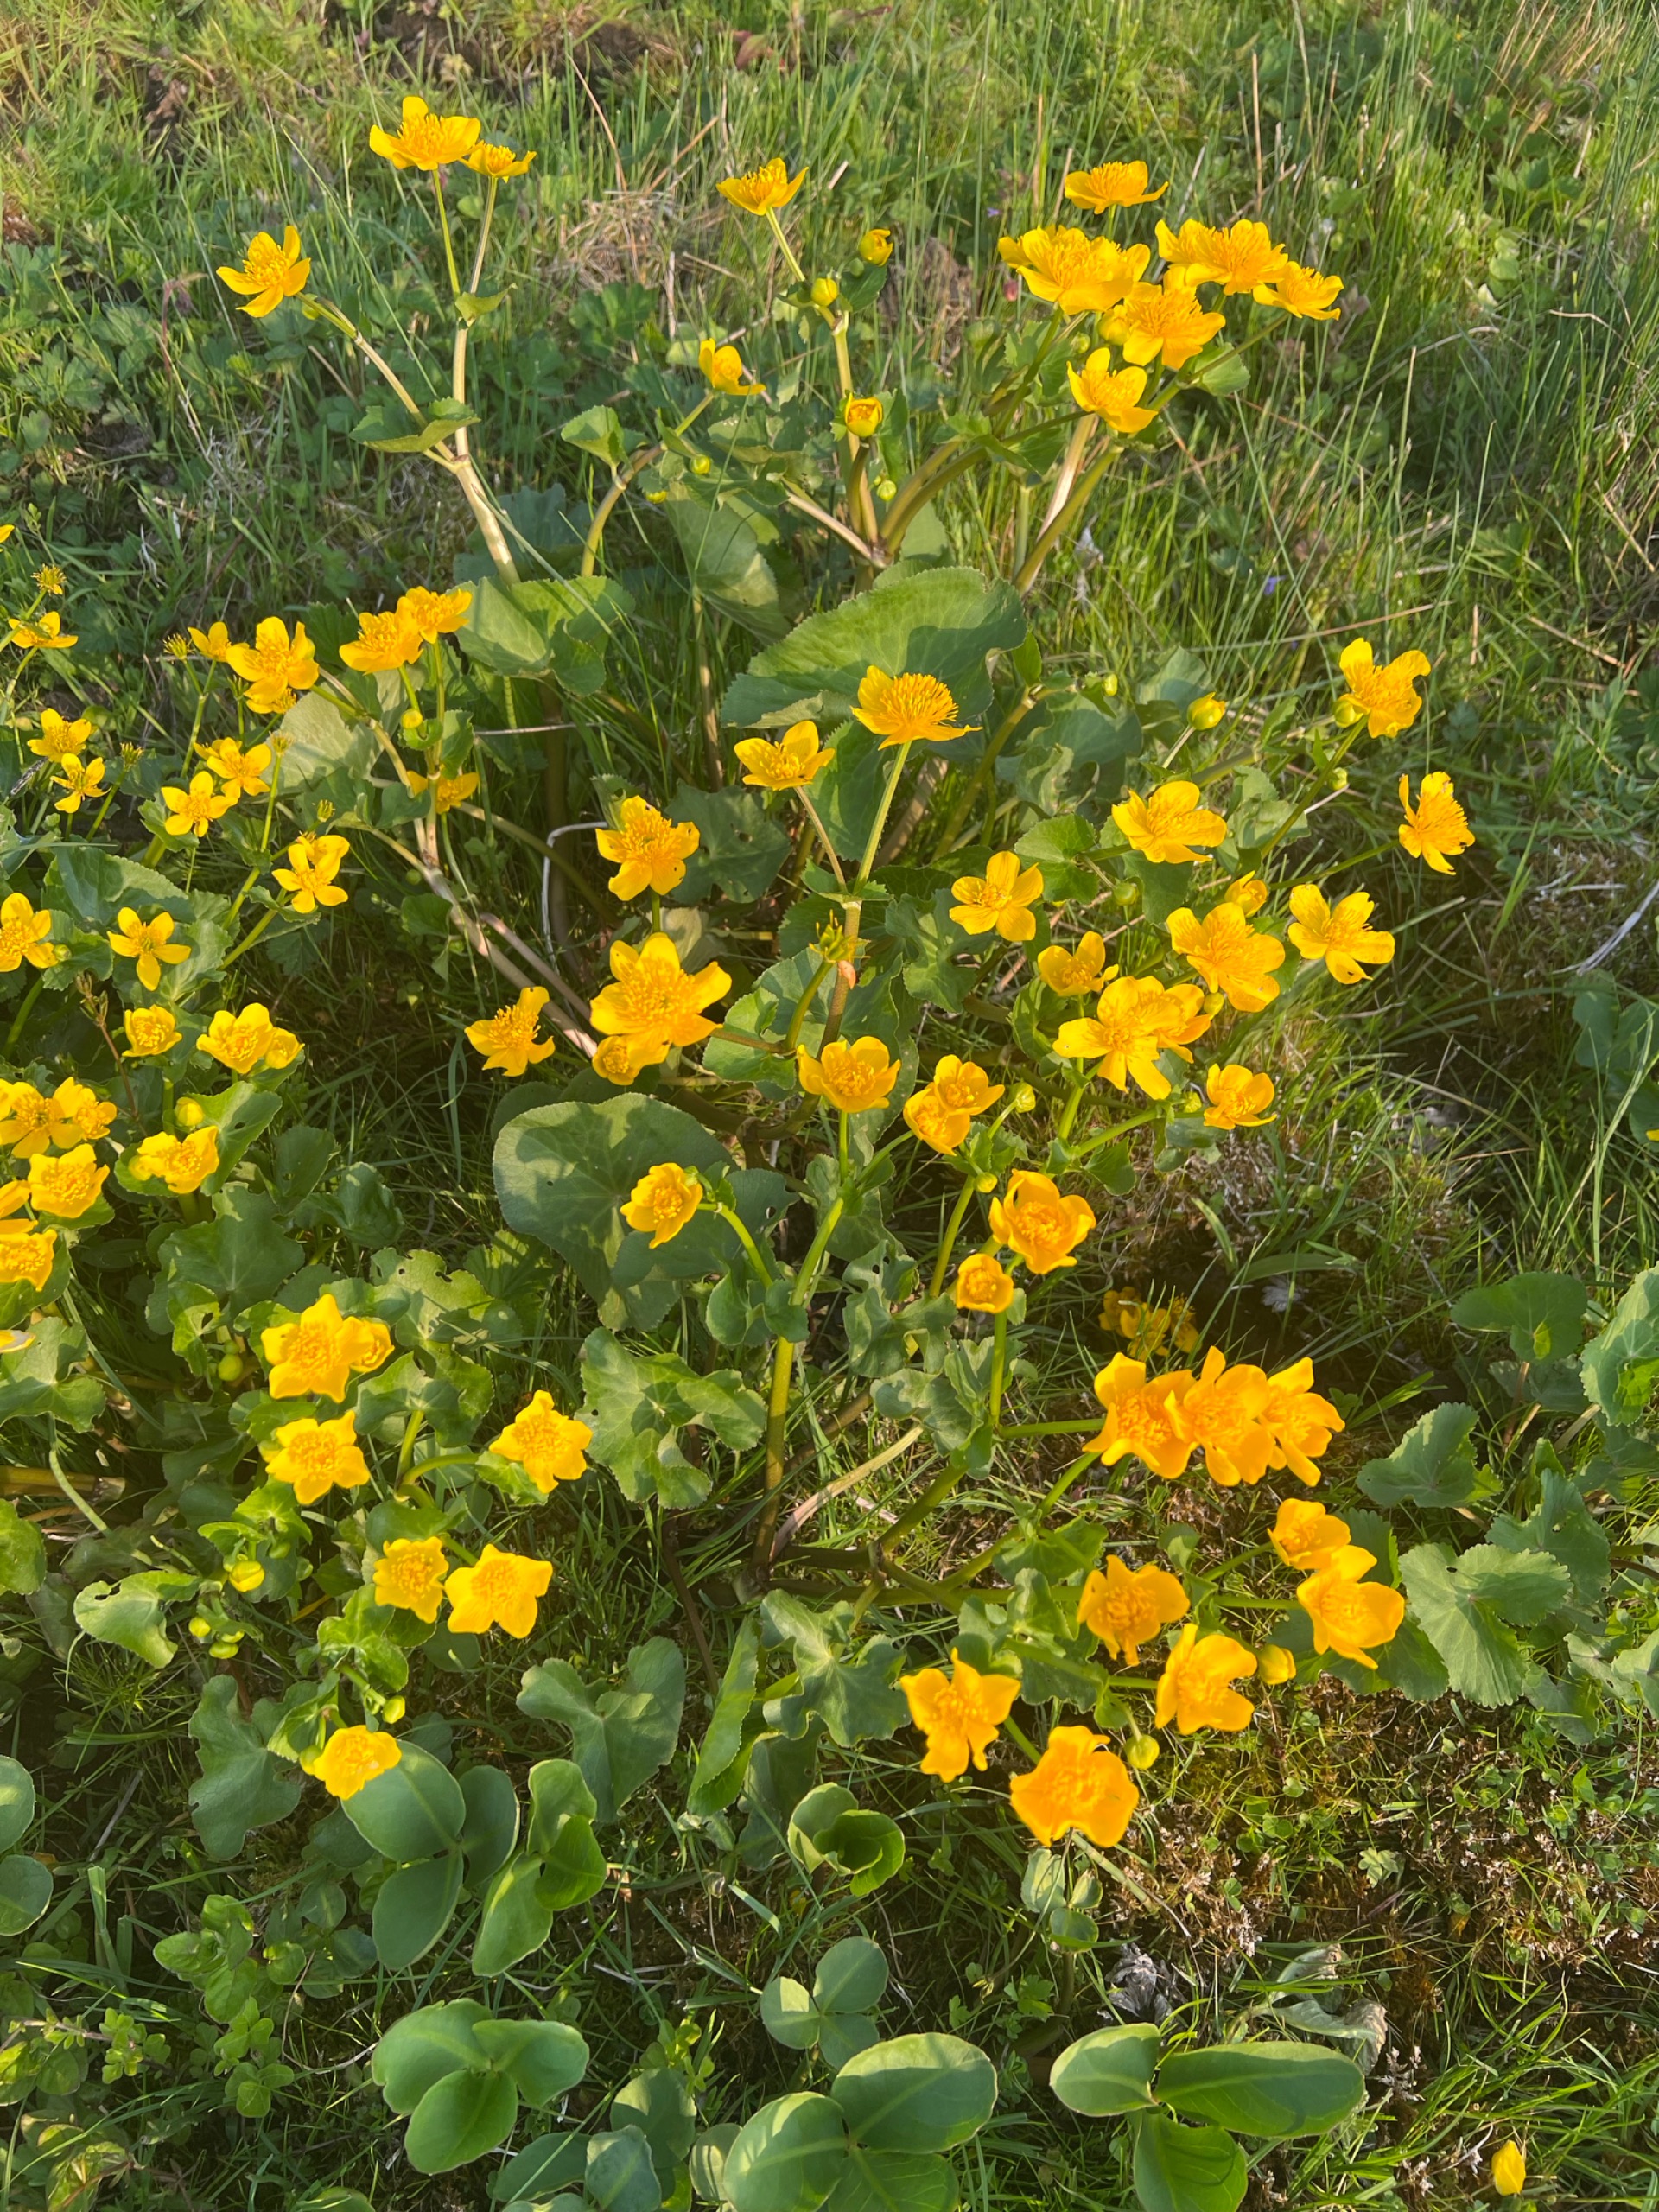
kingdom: Plantae
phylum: Tracheophyta
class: Magnoliopsida
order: Ranunculales
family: Ranunculaceae
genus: Caltha
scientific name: Caltha palustris
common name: Eng-kabbeleje
